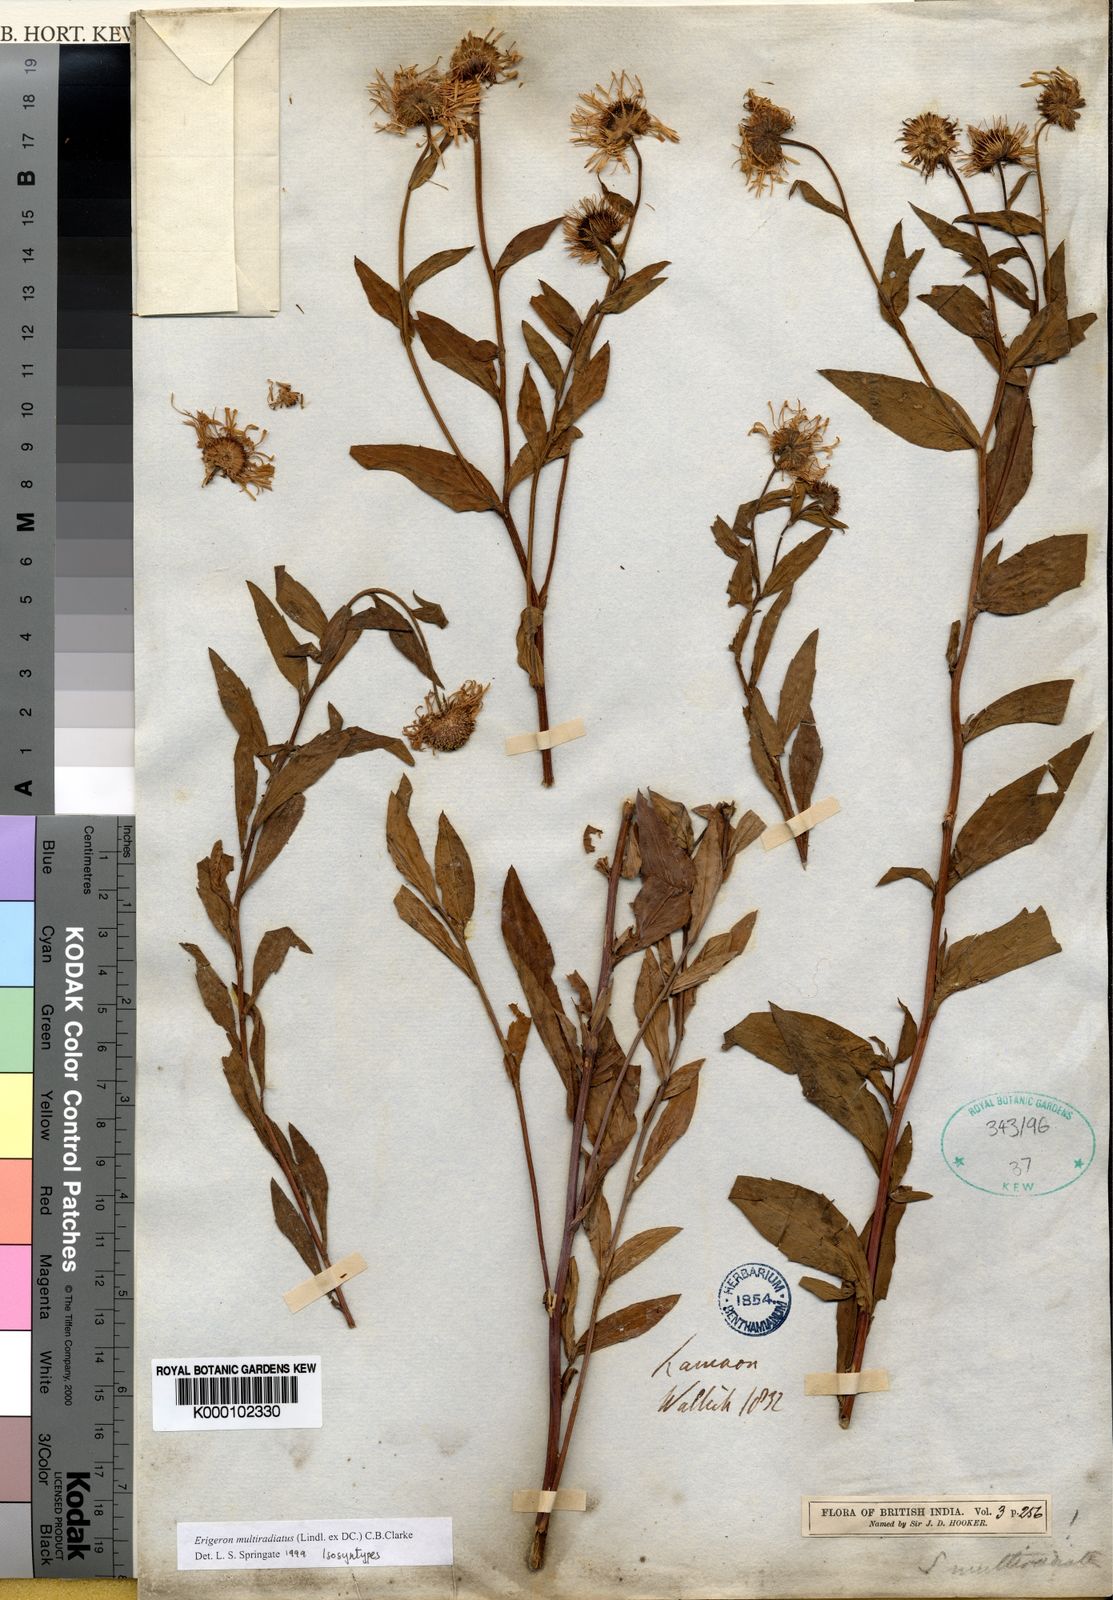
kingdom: Plantae
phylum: Tracheophyta
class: Magnoliopsida
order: Asterales
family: Asteraceae
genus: Erigeron
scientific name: Erigeron
